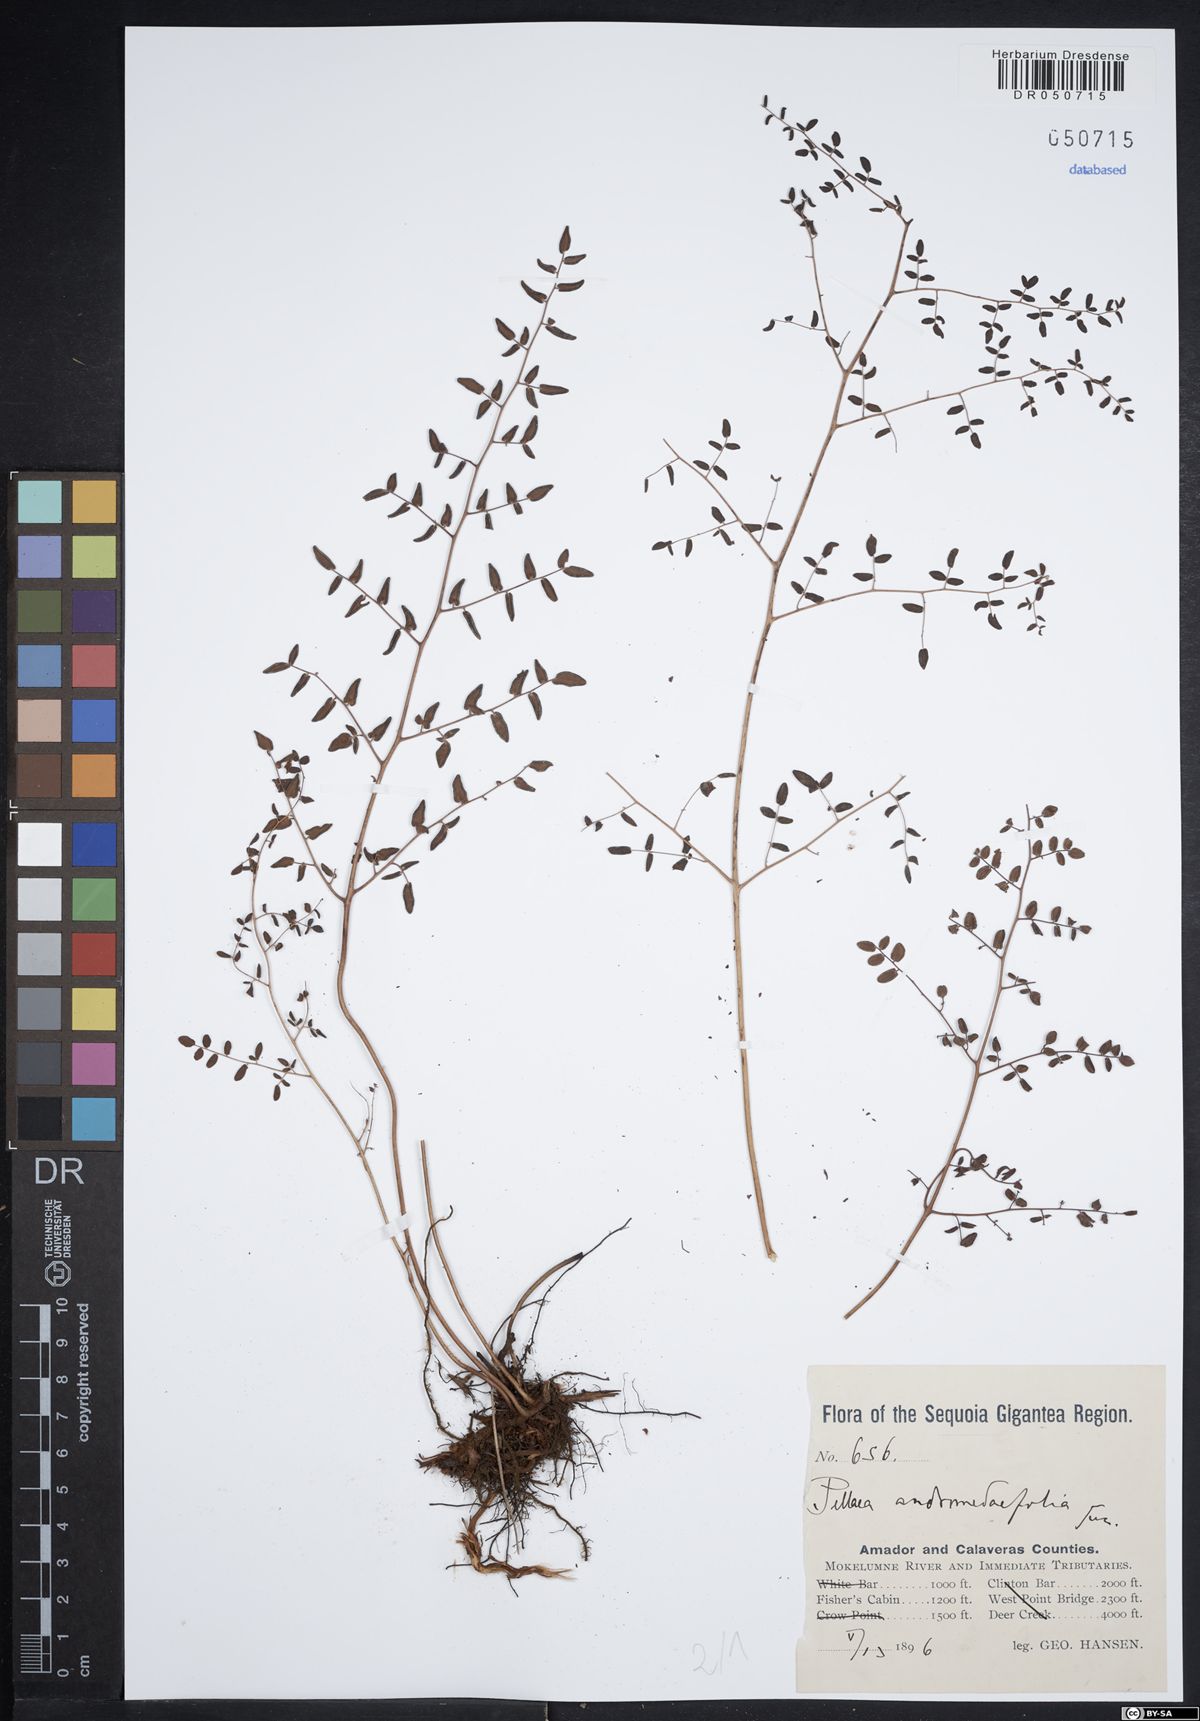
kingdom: Plantae
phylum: Tracheophyta
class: Polypodiopsida
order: Polypodiales
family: Pteridaceae
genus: Pellaea
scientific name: Pellaea andromedifolia
